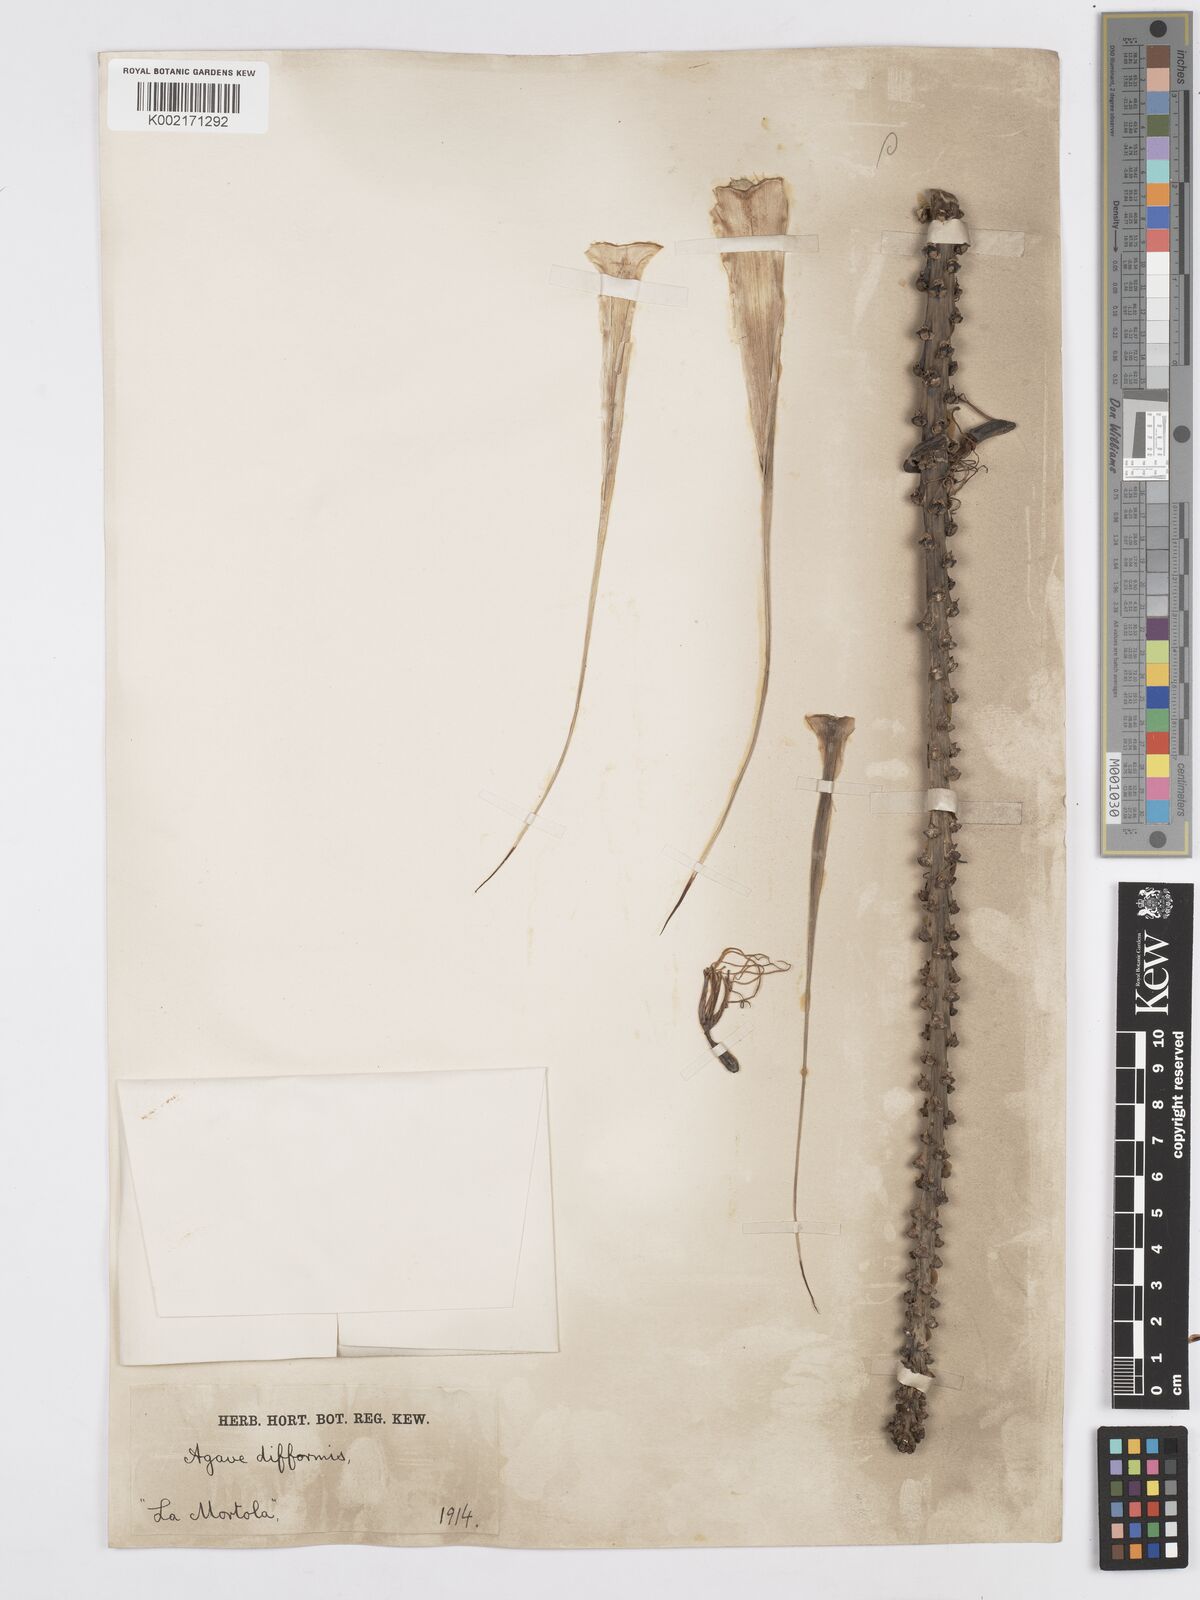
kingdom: Plantae
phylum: Tracheophyta
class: Liliopsida
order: Asparagales
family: Asparagaceae
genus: Agave
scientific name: Agave difformis
